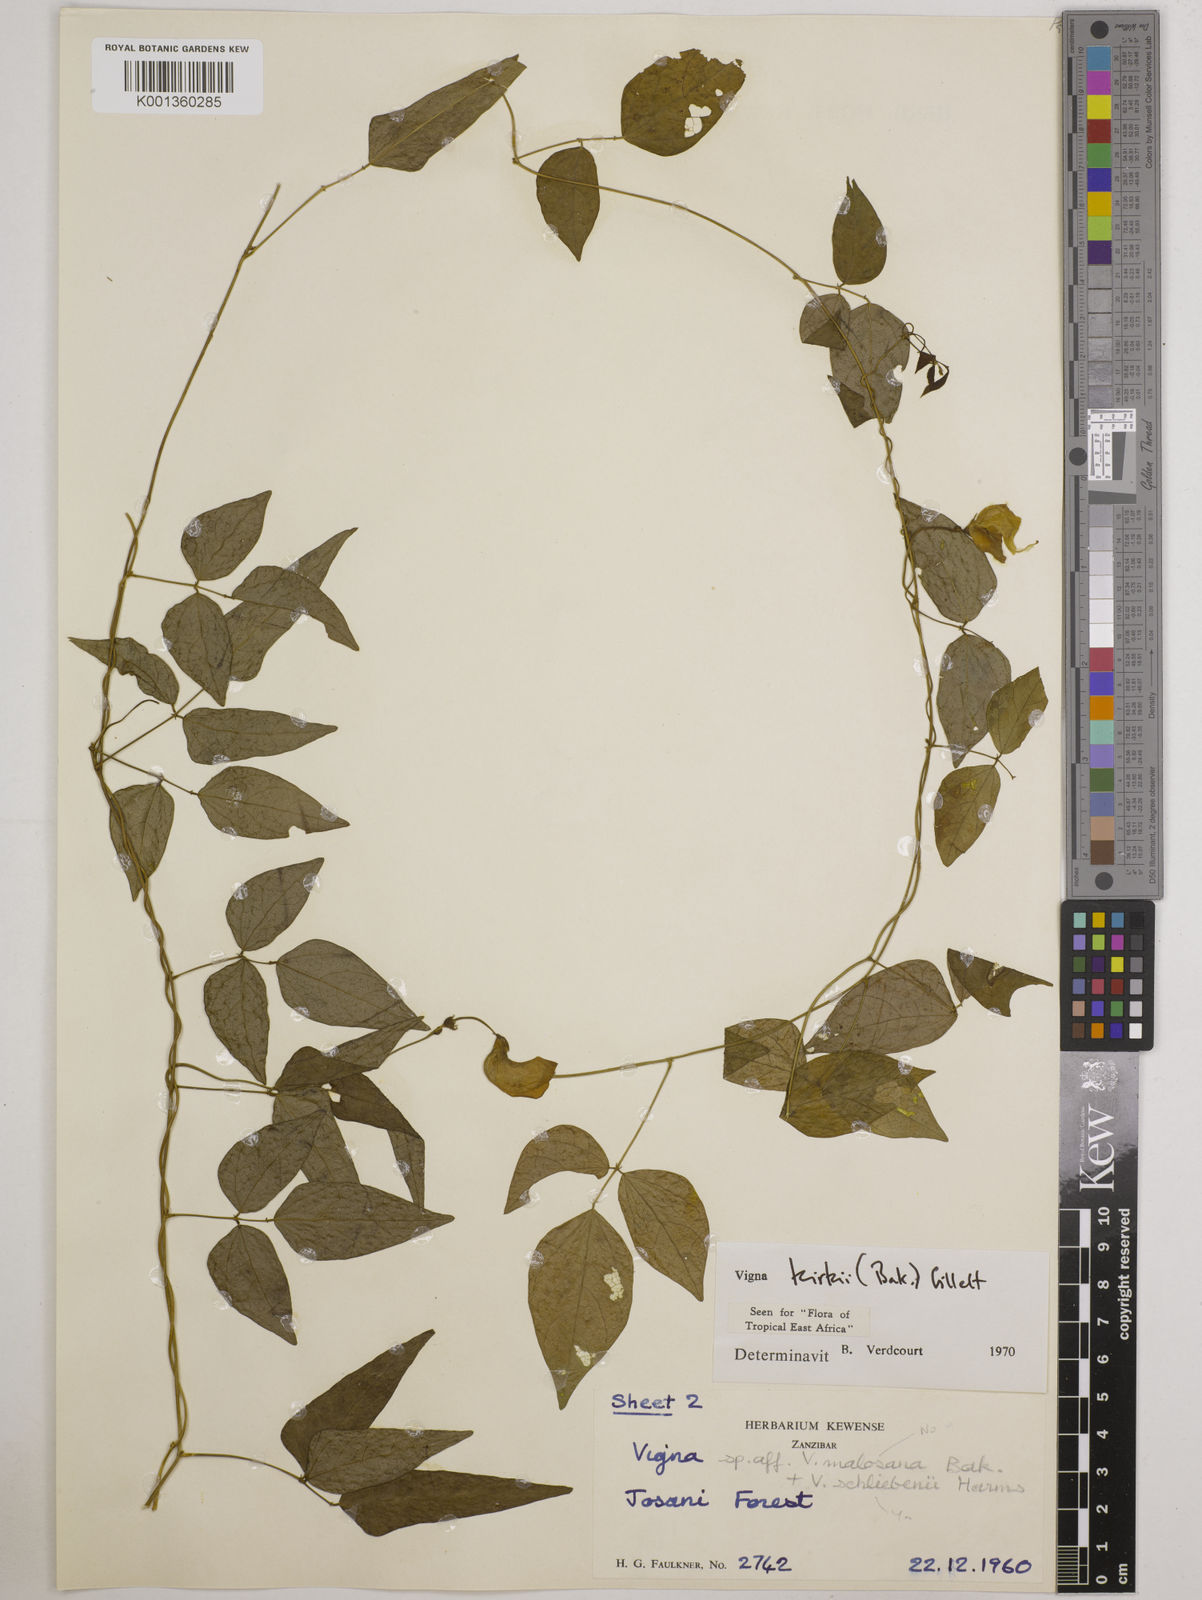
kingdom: Plantae
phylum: Tracheophyta
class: Magnoliopsida
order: Fabales
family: Fabaceae
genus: Vigna
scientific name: Vigna kirkii
